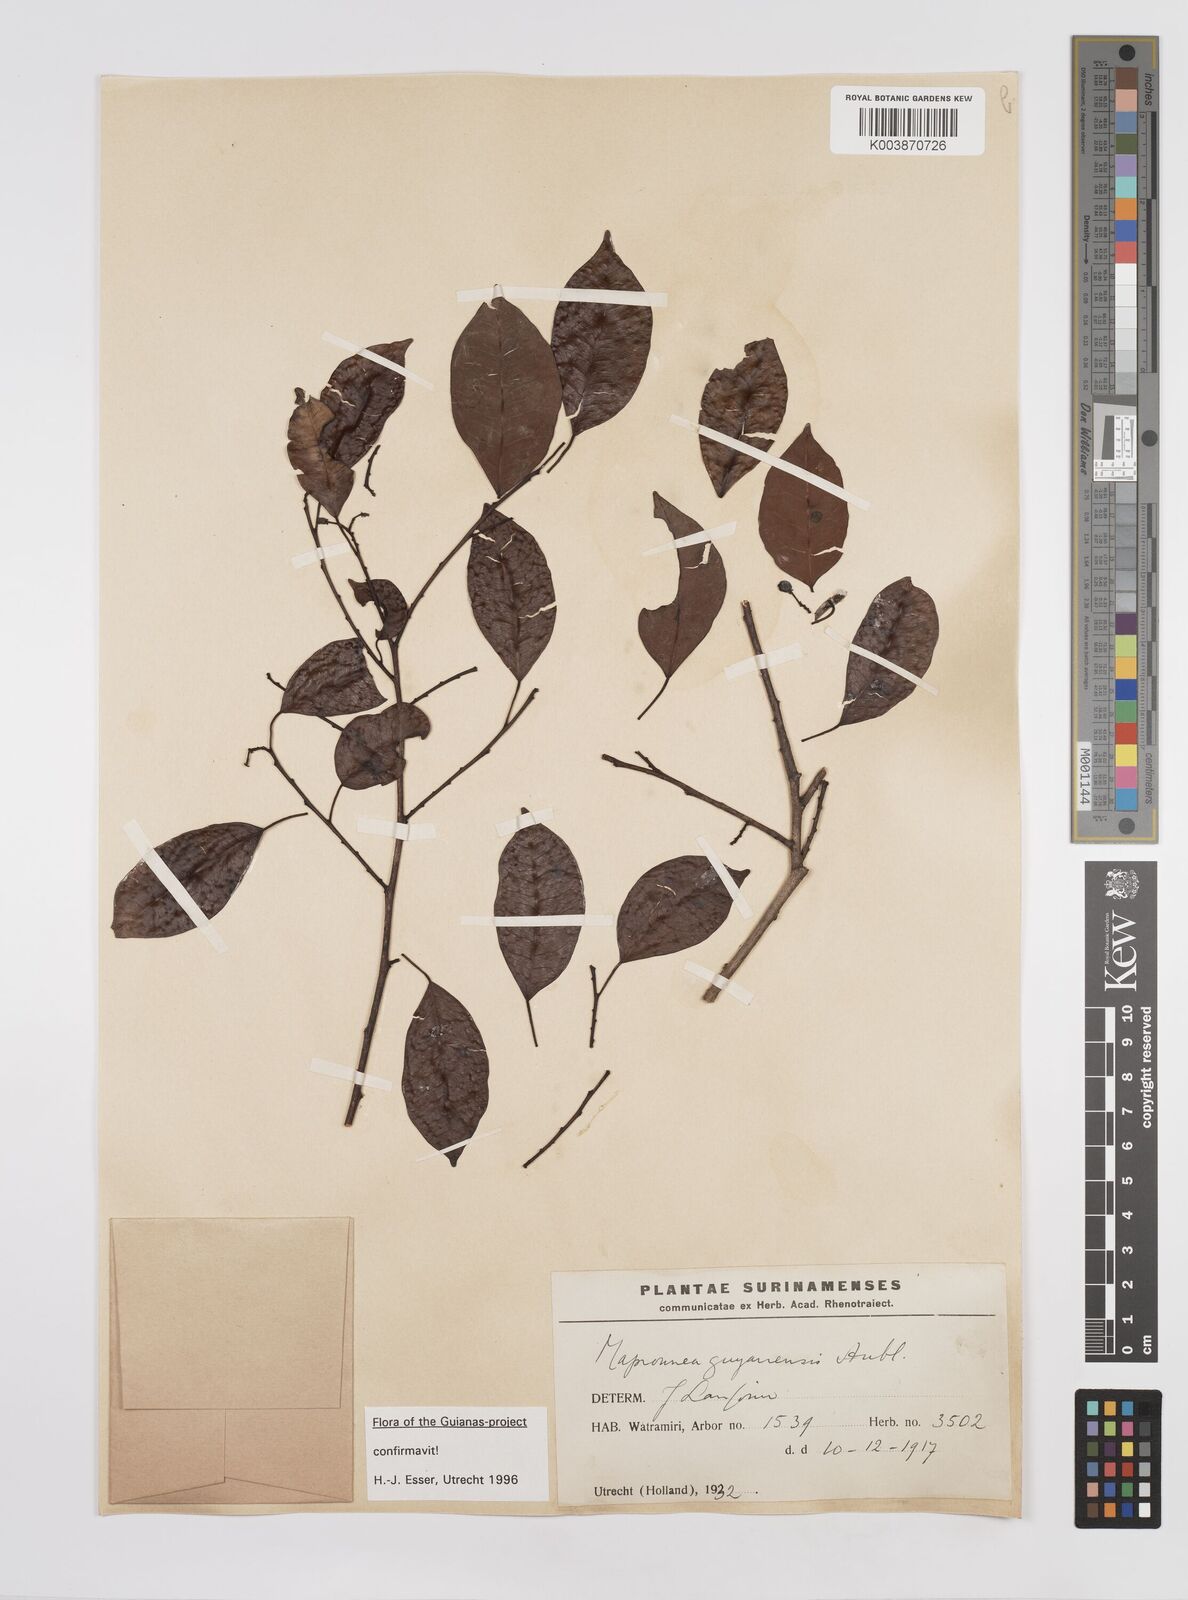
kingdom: Plantae
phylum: Tracheophyta
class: Magnoliopsida
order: Malpighiales
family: Euphorbiaceae
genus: Maprounea
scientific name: Maprounea guianensis
